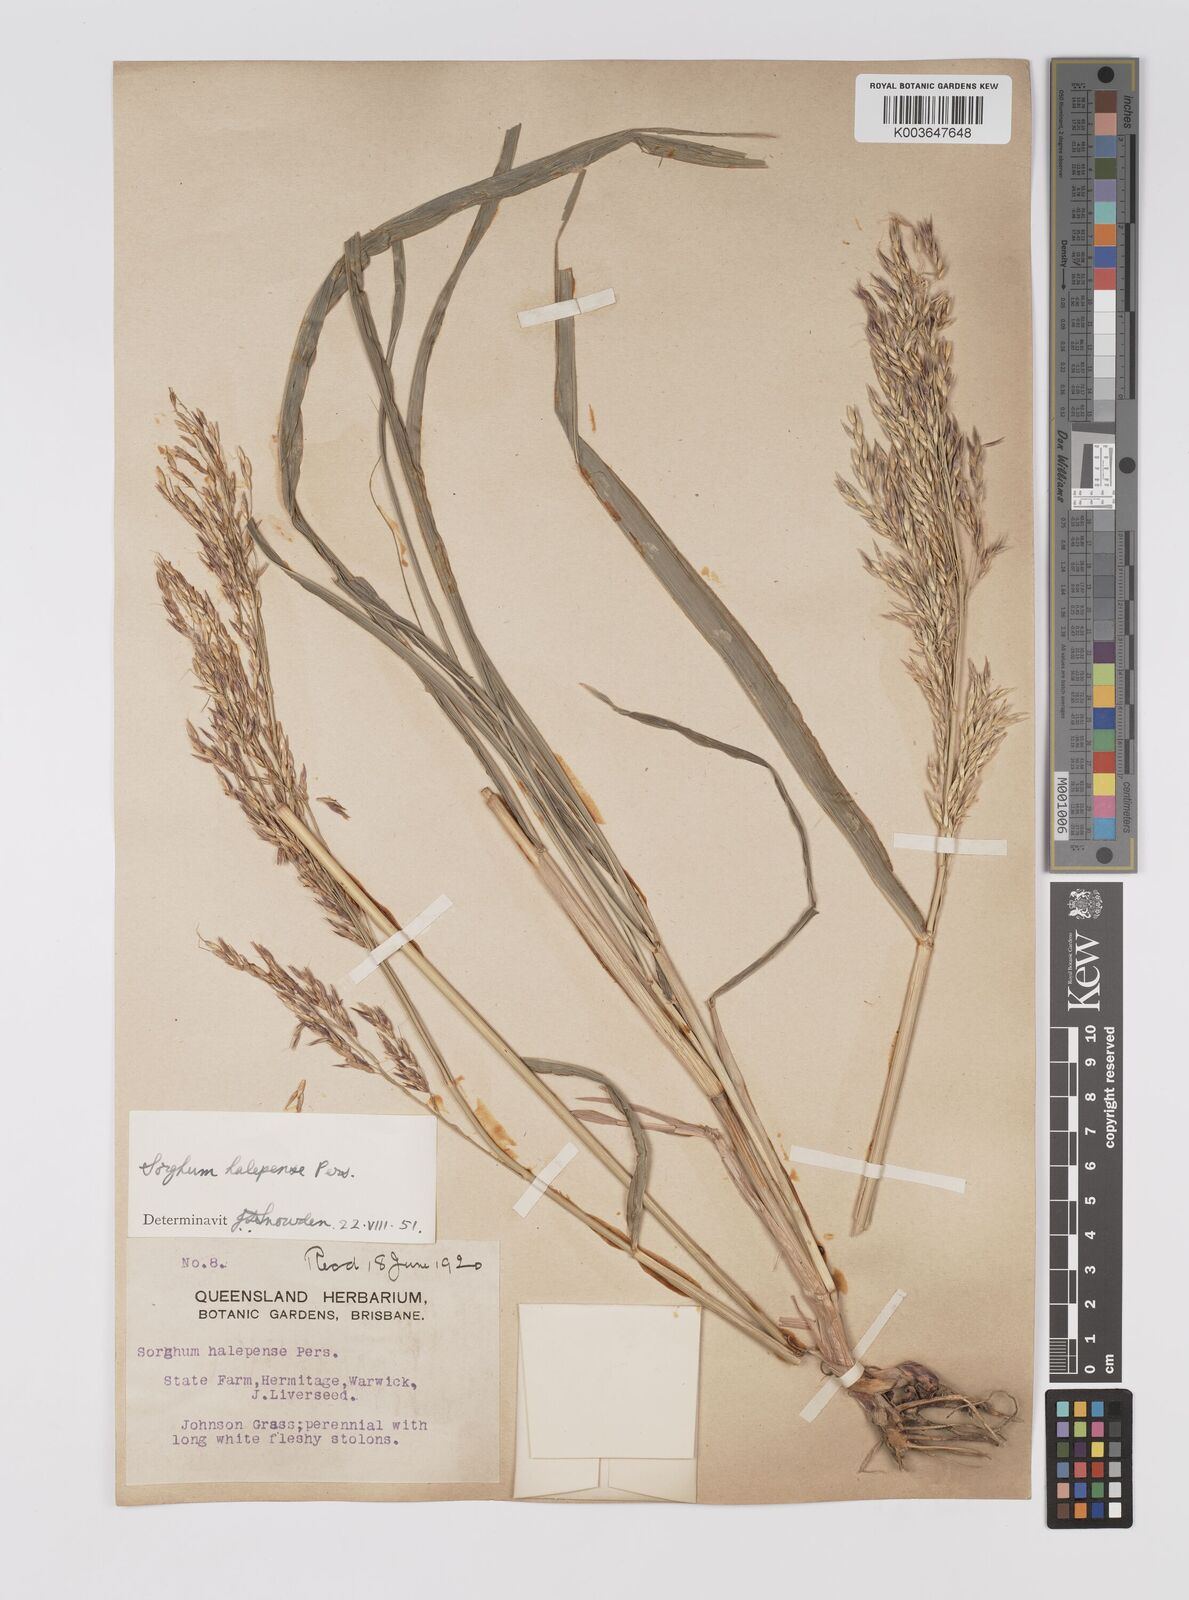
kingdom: Plantae
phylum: Tracheophyta
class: Liliopsida
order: Poales
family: Poaceae
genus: Sorghum
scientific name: Sorghum halepense
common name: Johnson-grass
